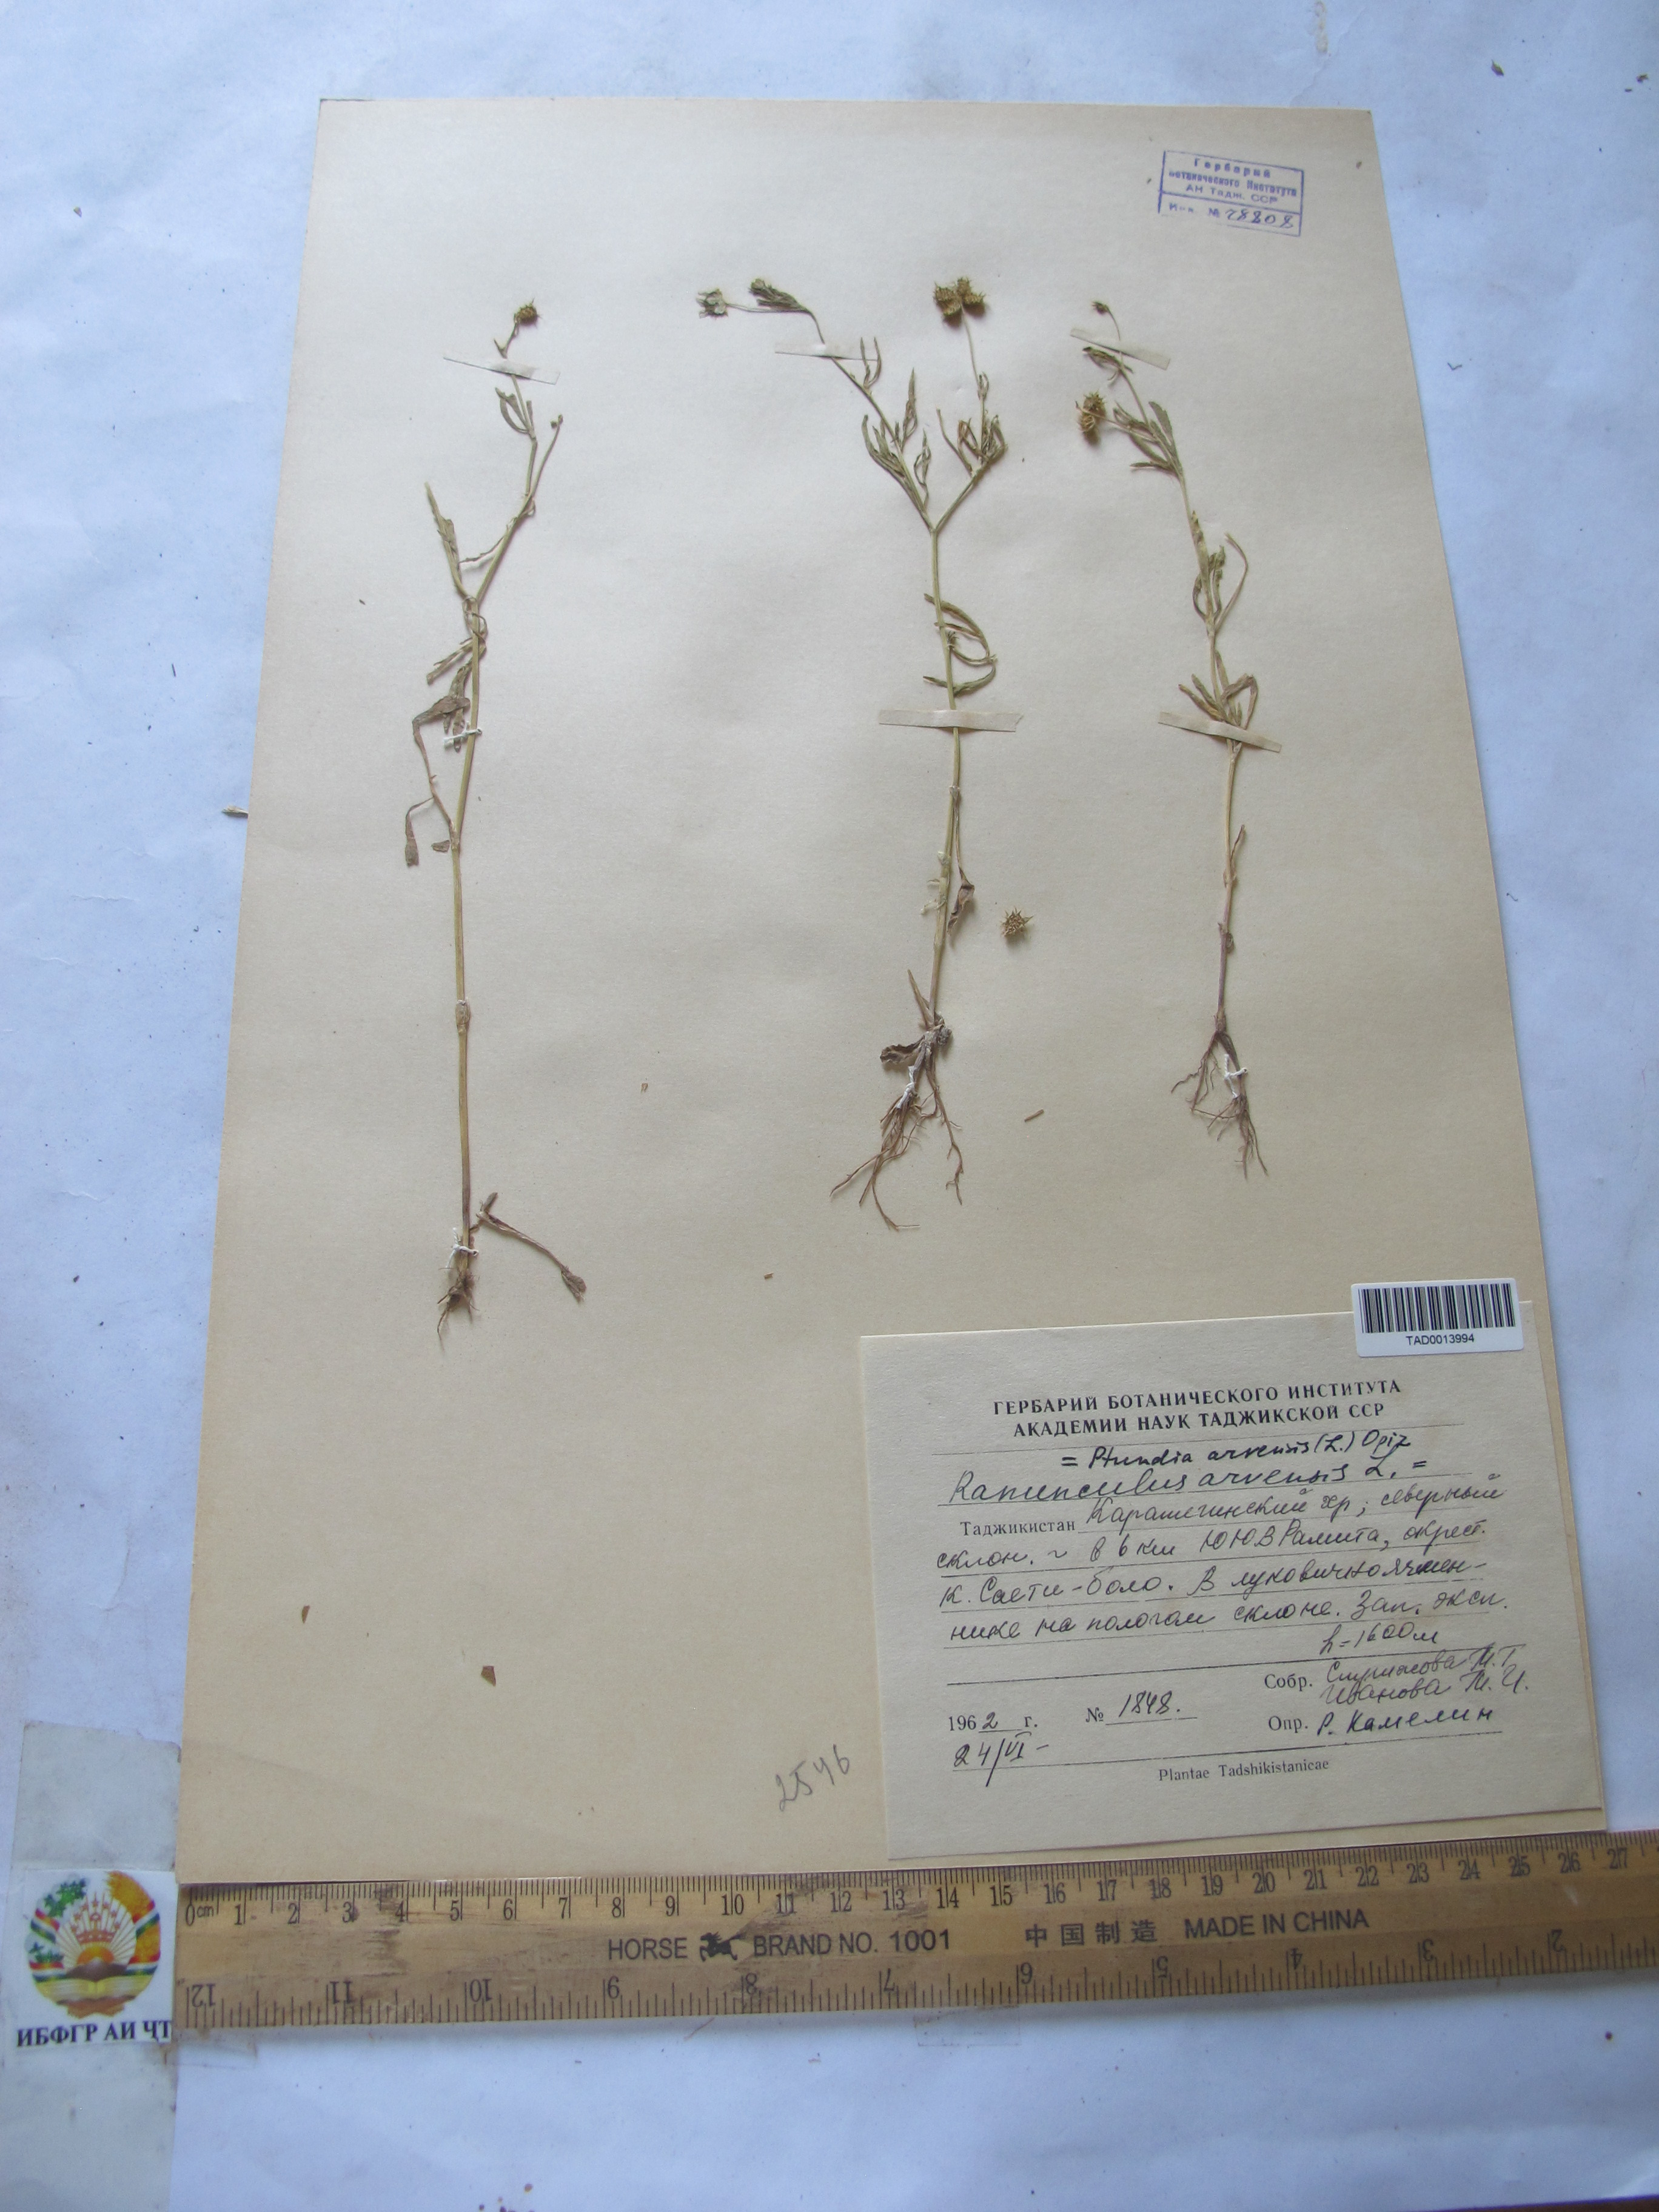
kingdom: Plantae
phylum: Tracheophyta
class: Magnoliopsida
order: Ranunculales
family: Ranunculaceae
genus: Ranunculus
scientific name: Ranunculus arvensis
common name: Corn buttercup
